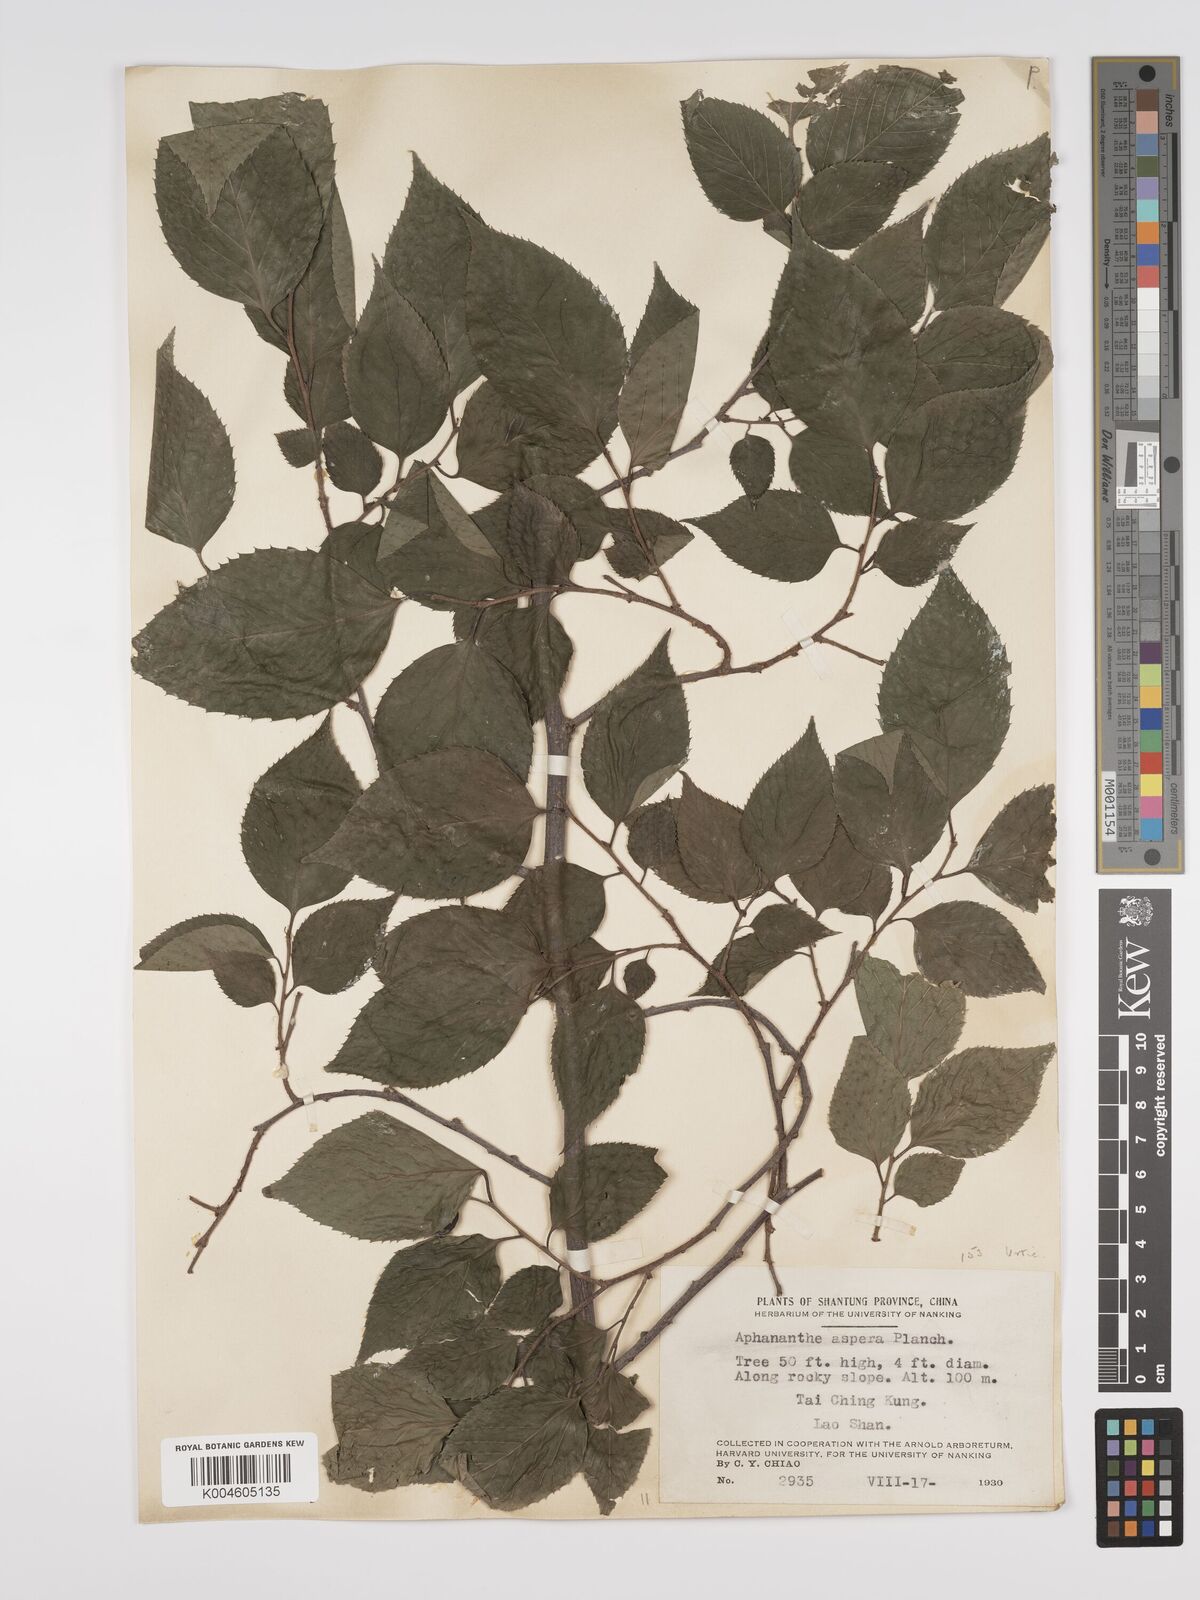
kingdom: Plantae
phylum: Tracheophyta
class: Magnoliopsida
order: Rosales
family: Cannabaceae
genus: Aphananthe
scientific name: Aphananthe aspera
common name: Mukutree
